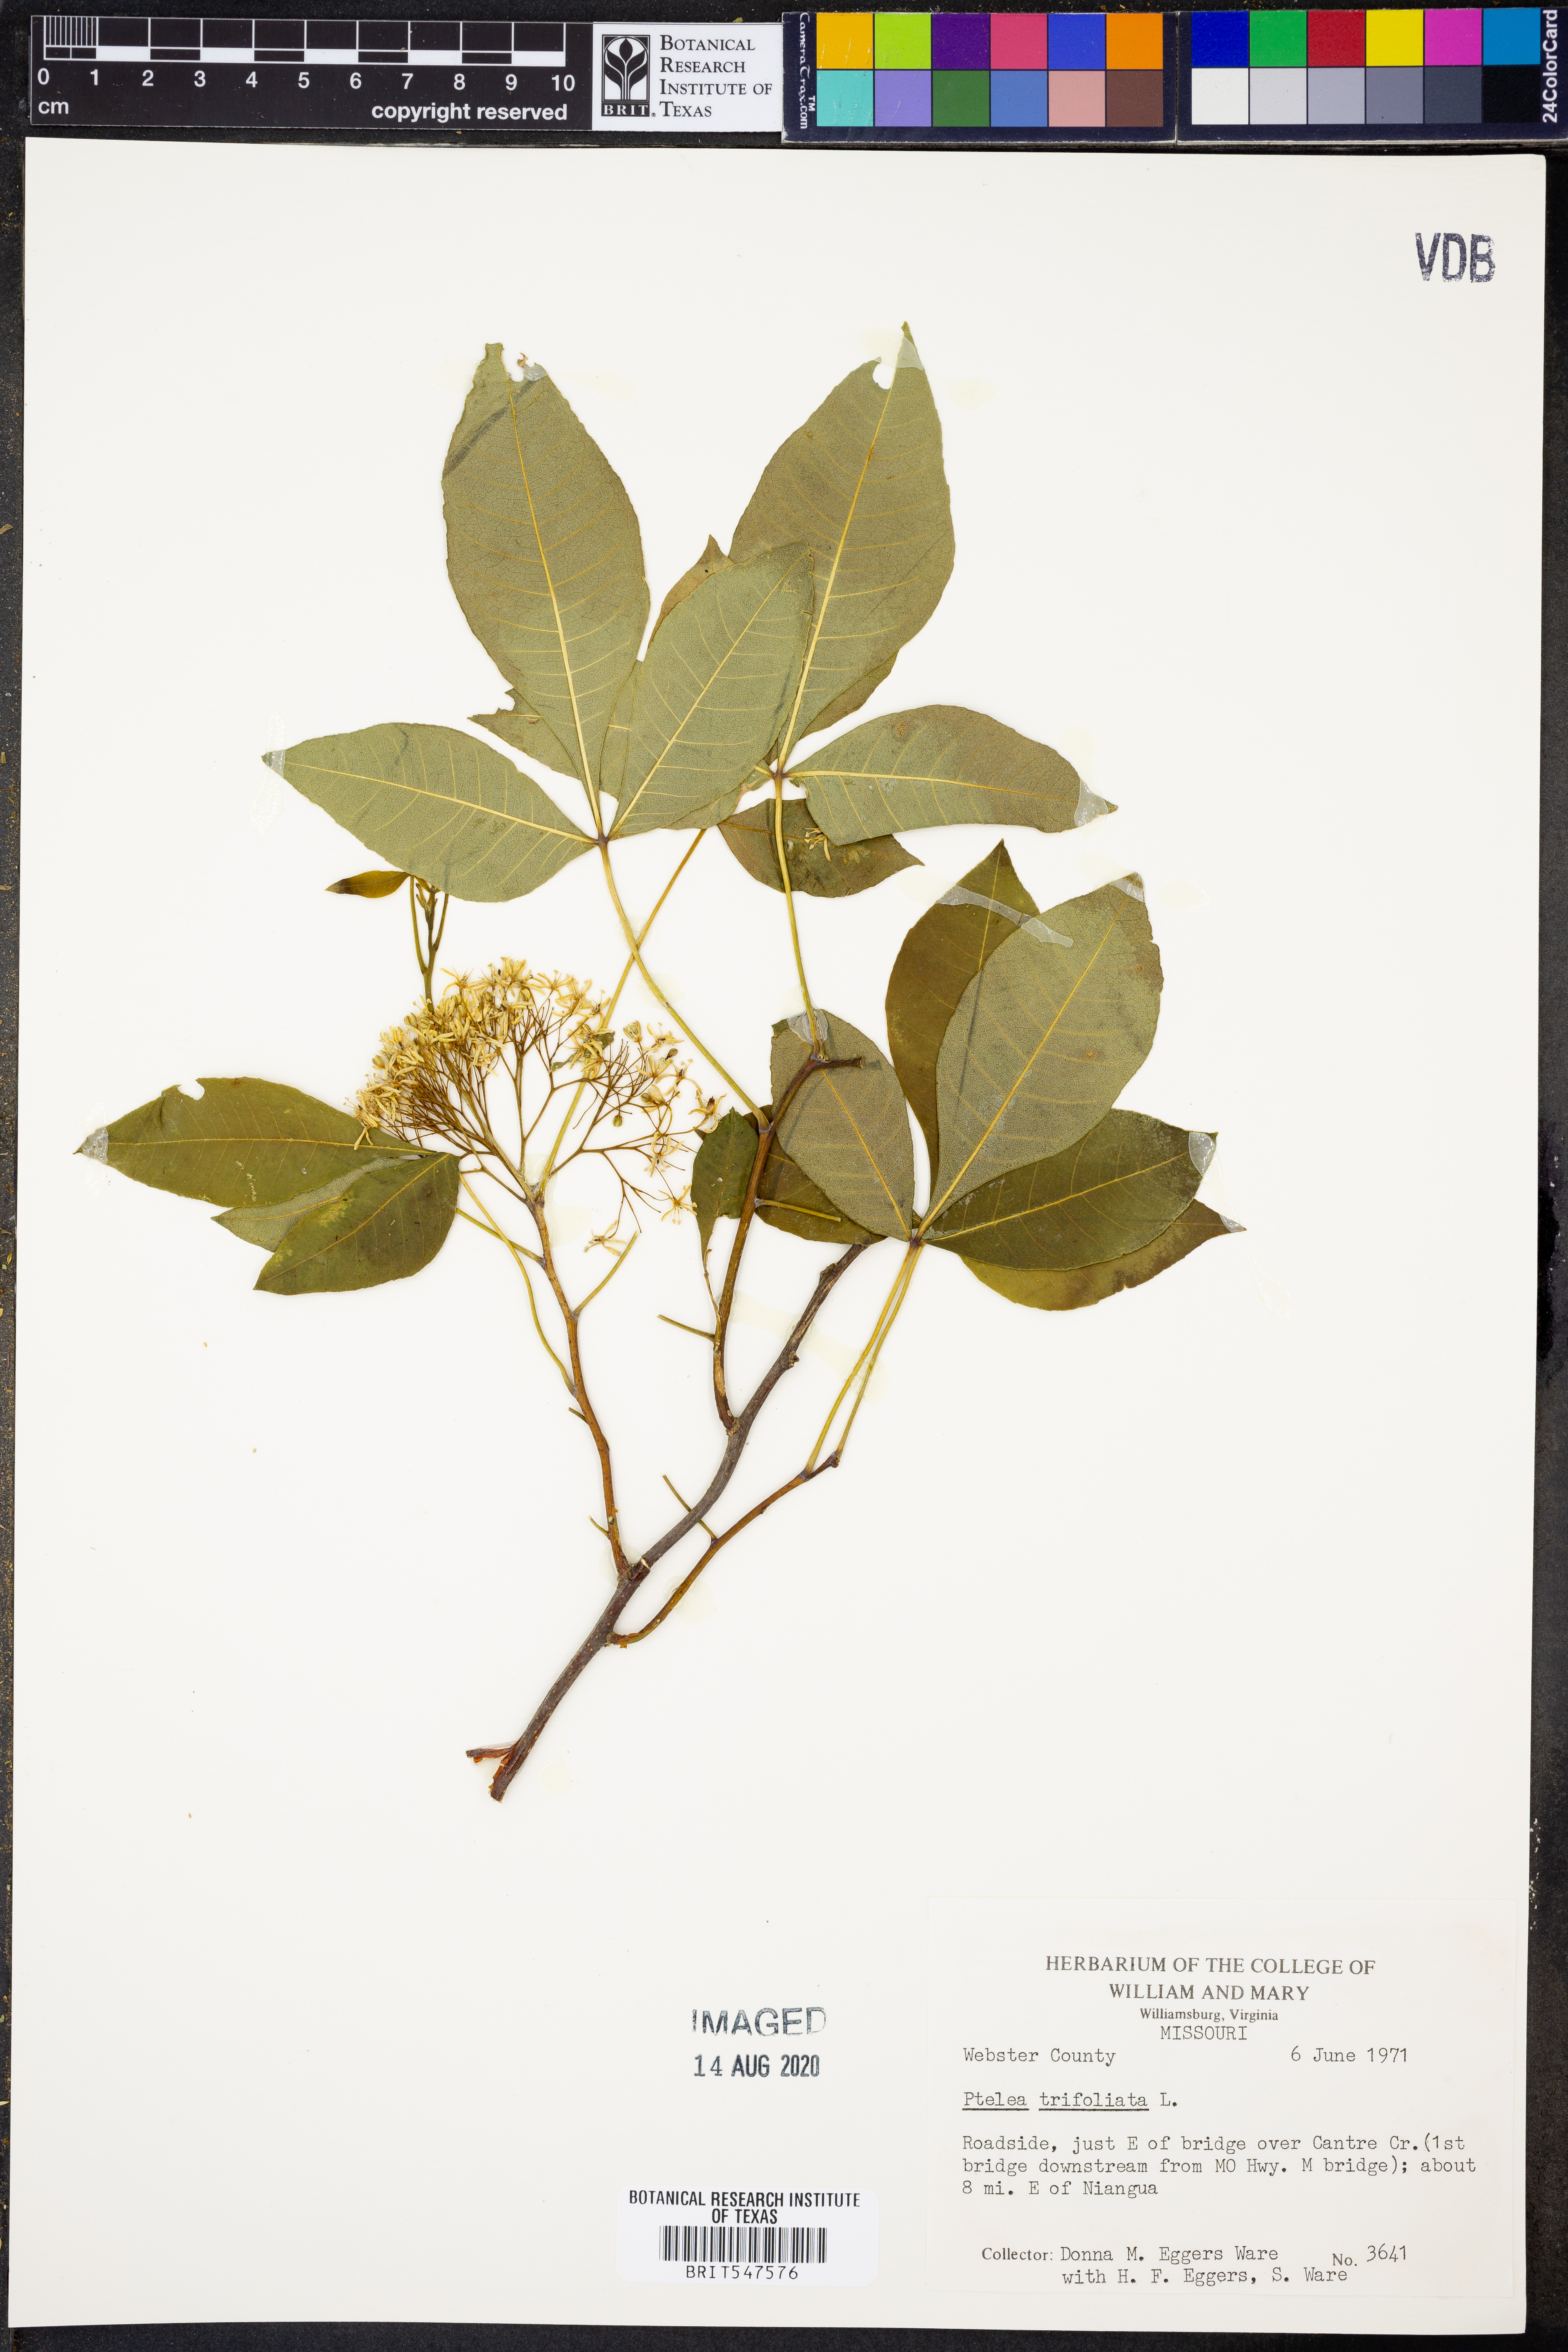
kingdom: Plantae
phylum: Tracheophyta
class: Magnoliopsida
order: Sapindales
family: Rutaceae
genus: Ptelea
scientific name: Ptelea trifoliata
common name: Common hop-tree
